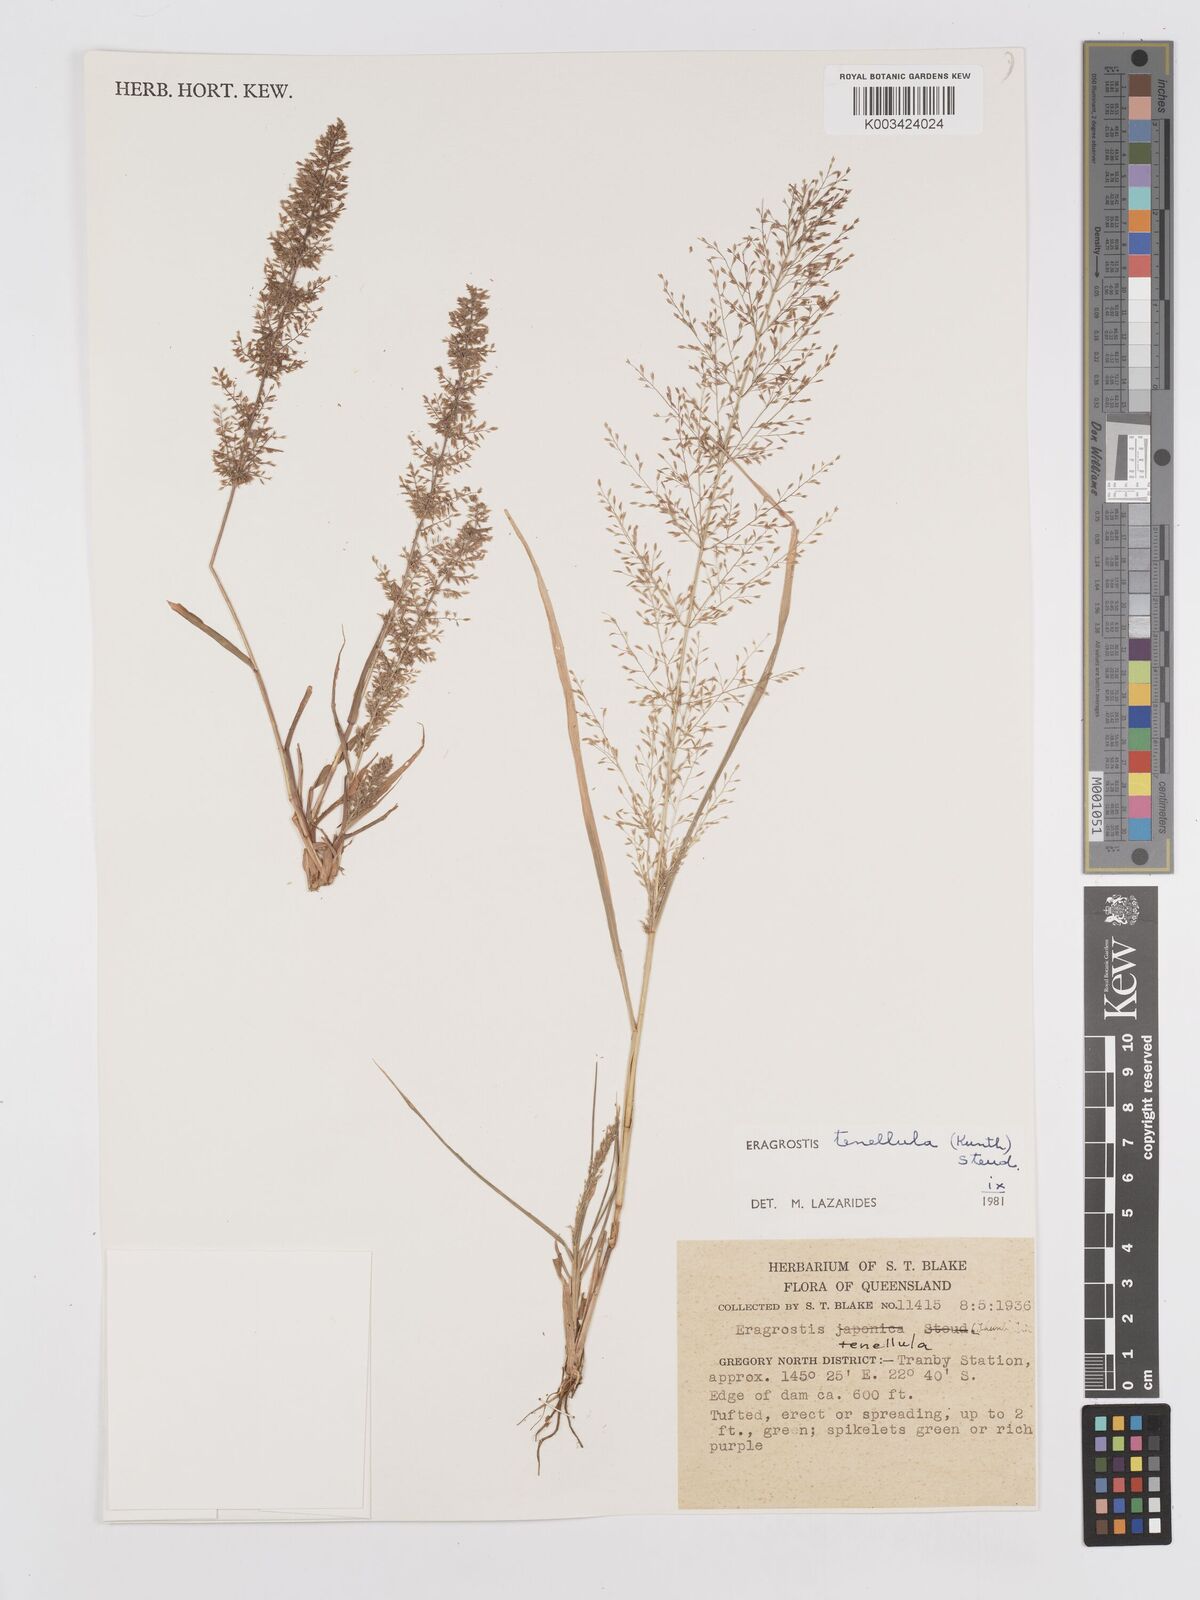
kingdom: Plantae
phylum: Tracheophyta
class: Liliopsida
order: Poales
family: Poaceae
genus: Eragrostis
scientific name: Eragrostis tenellula
